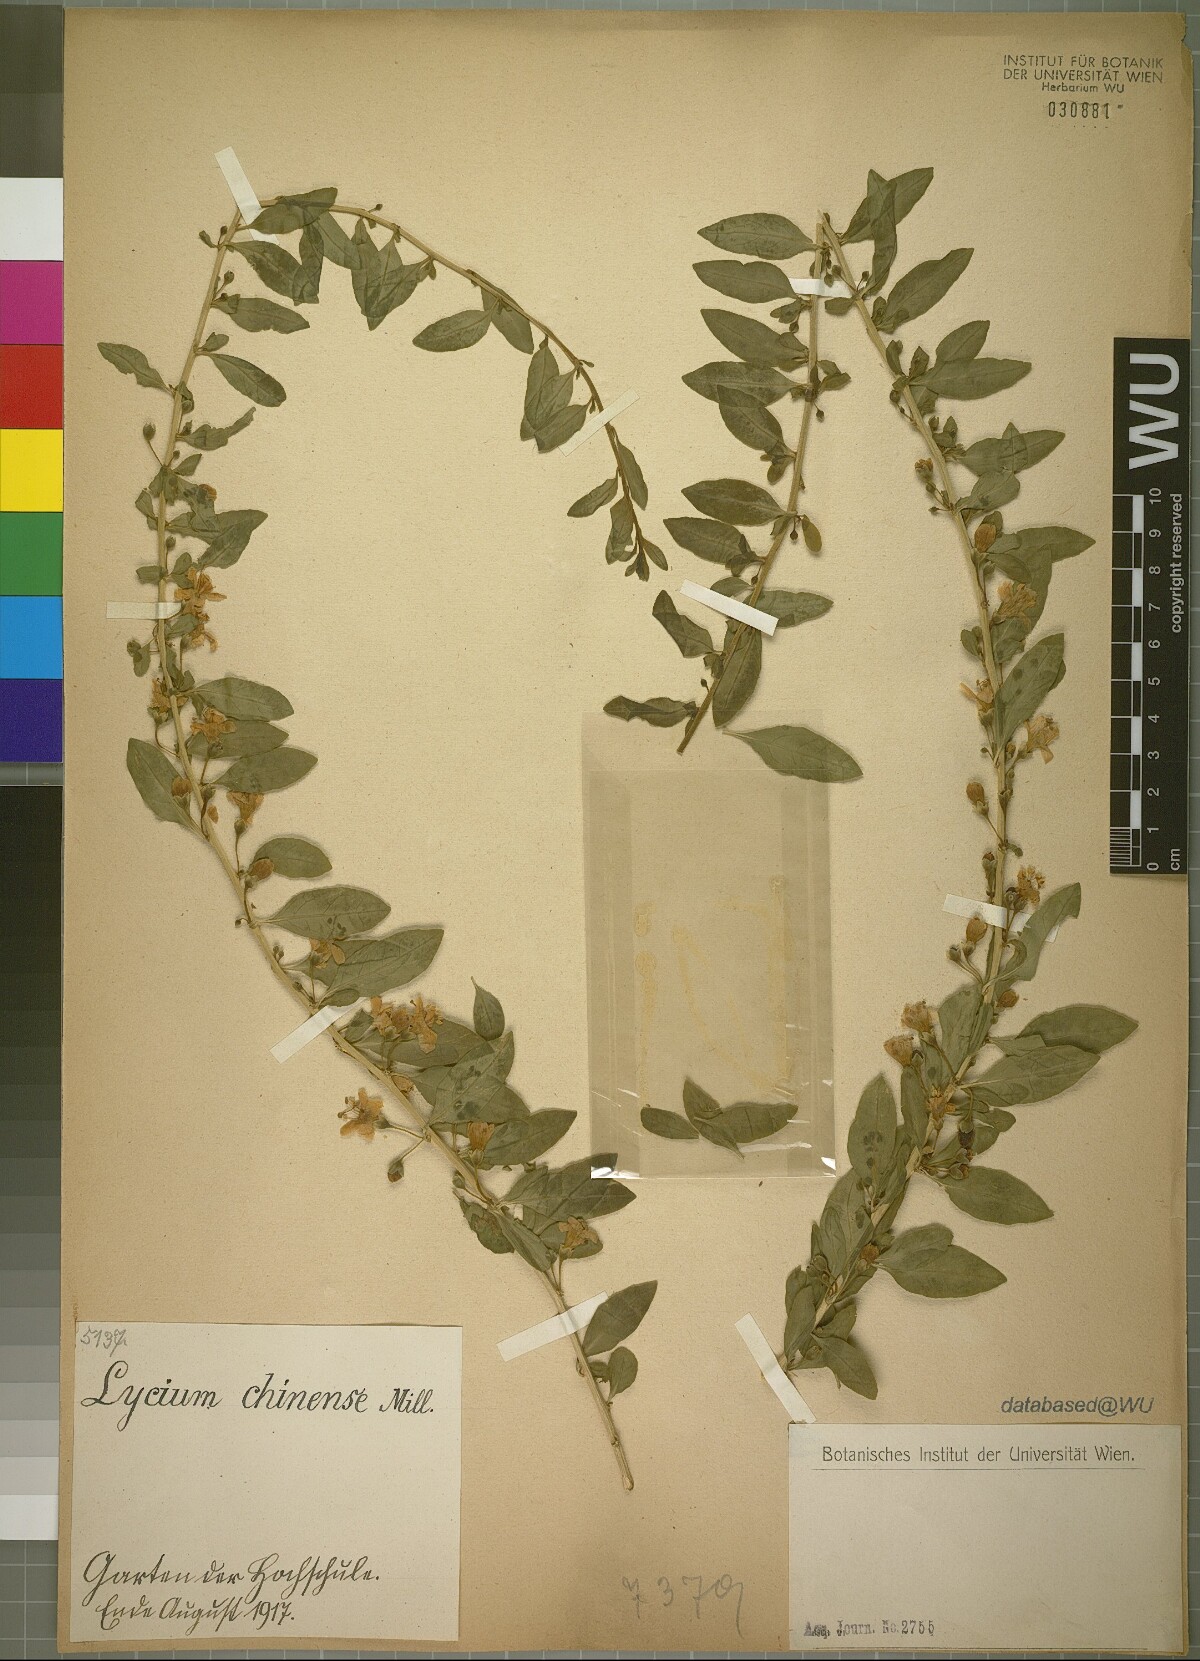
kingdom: Plantae
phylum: Tracheophyta
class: Magnoliopsida
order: Solanales
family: Solanaceae
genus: Lycium
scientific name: Lycium chinense
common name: Chinese teaplant
